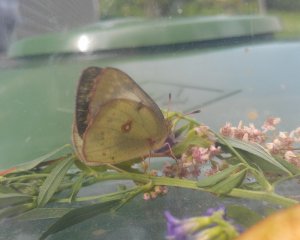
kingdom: Animalia
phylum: Arthropoda
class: Insecta
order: Lepidoptera
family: Pieridae
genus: Colias
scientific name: Colias philodice
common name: Clouded Sulphur
